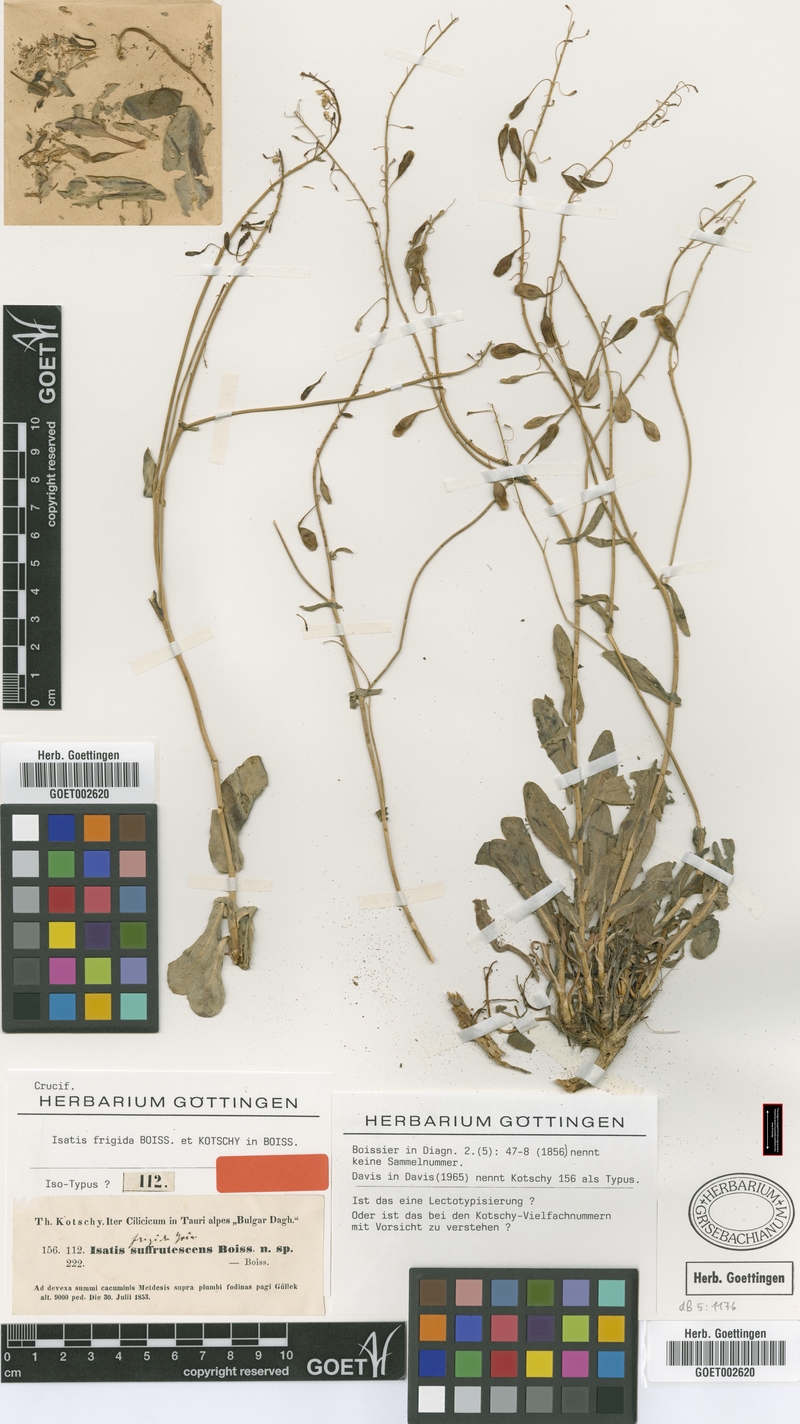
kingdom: Plantae
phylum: Tracheophyta
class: Magnoliopsida
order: Brassicales
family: Brassicaceae
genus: Isatis
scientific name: Isatis frigida
